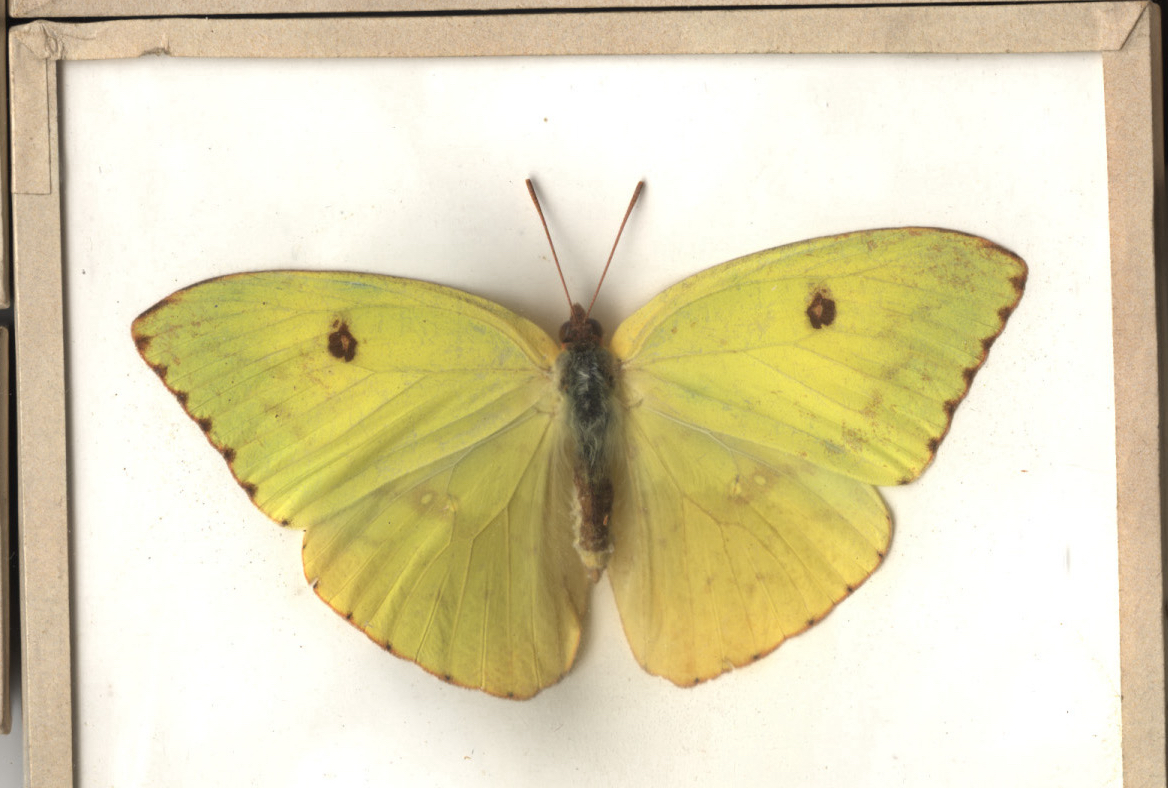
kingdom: Animalia
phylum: Arthropoda
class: Insecta
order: Lepidoptera
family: Pieridae
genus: Phoebis
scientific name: Phoebis sennae
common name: Cloudless Sulphur
